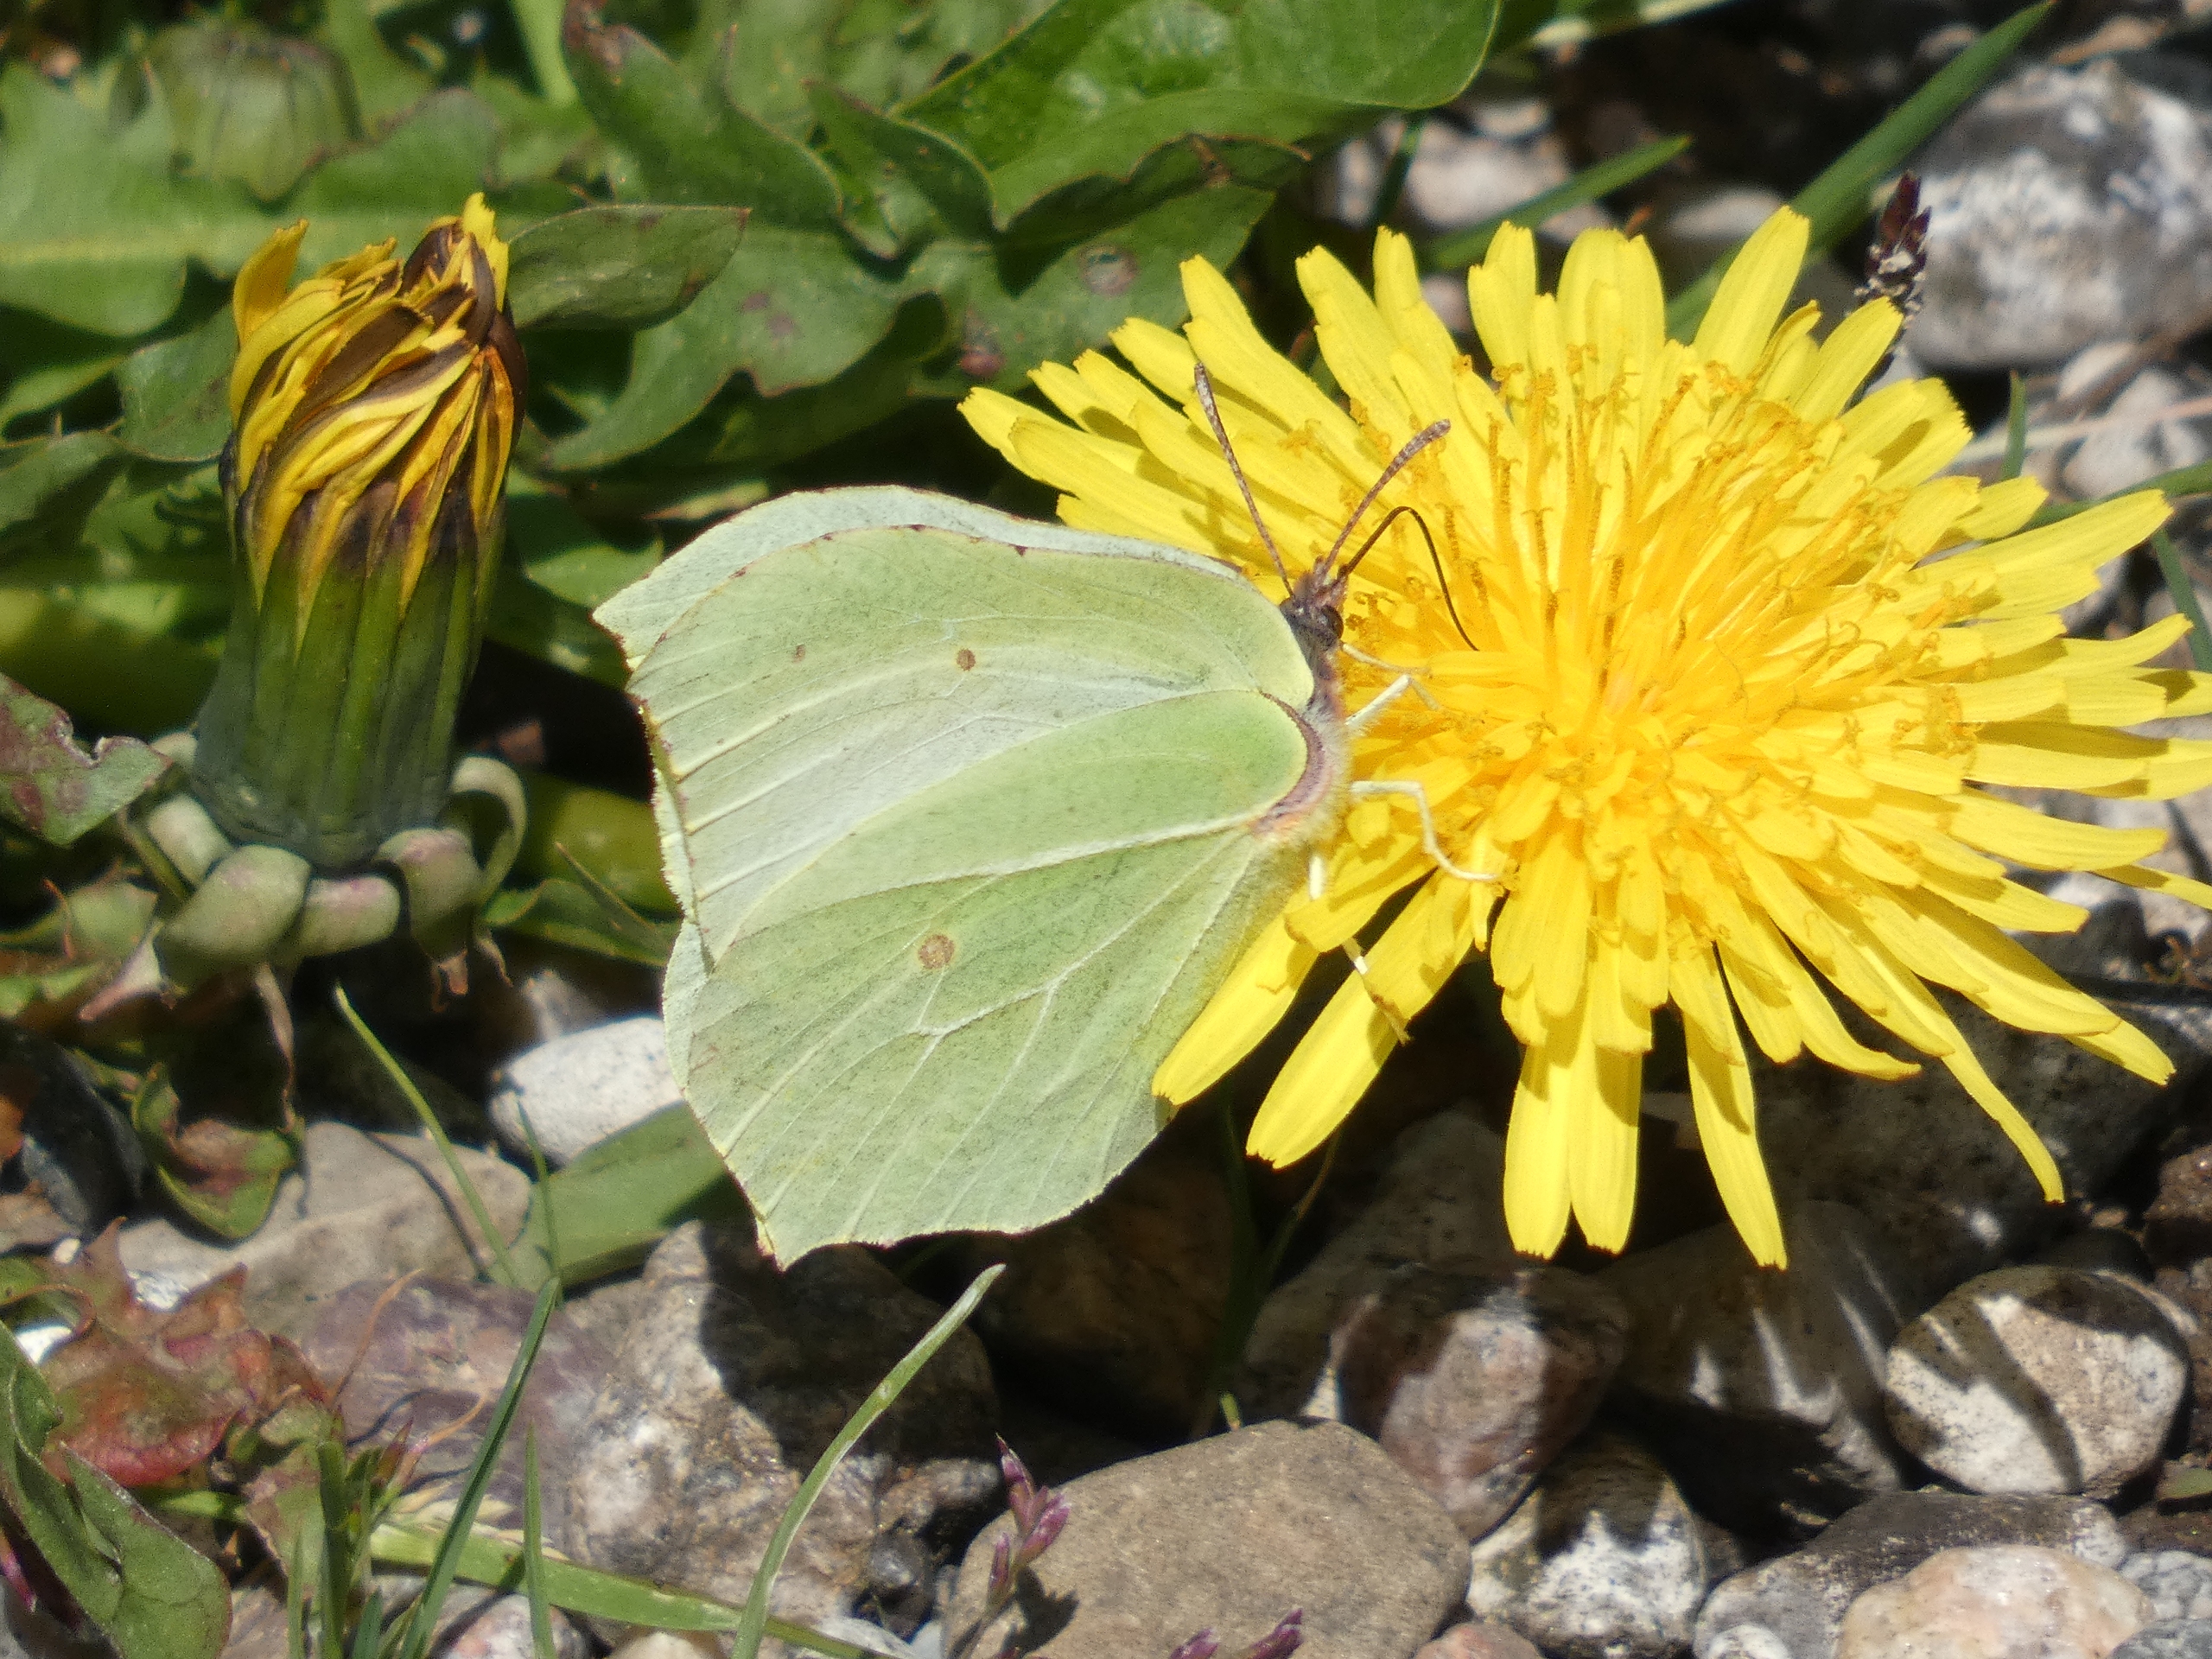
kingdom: Animalia
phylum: Arthropoda
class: Insecta
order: Lepidoptera
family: Pieridae
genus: Gonepteryx
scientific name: Gonepteryx rhamni
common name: Citronsommerfugl
